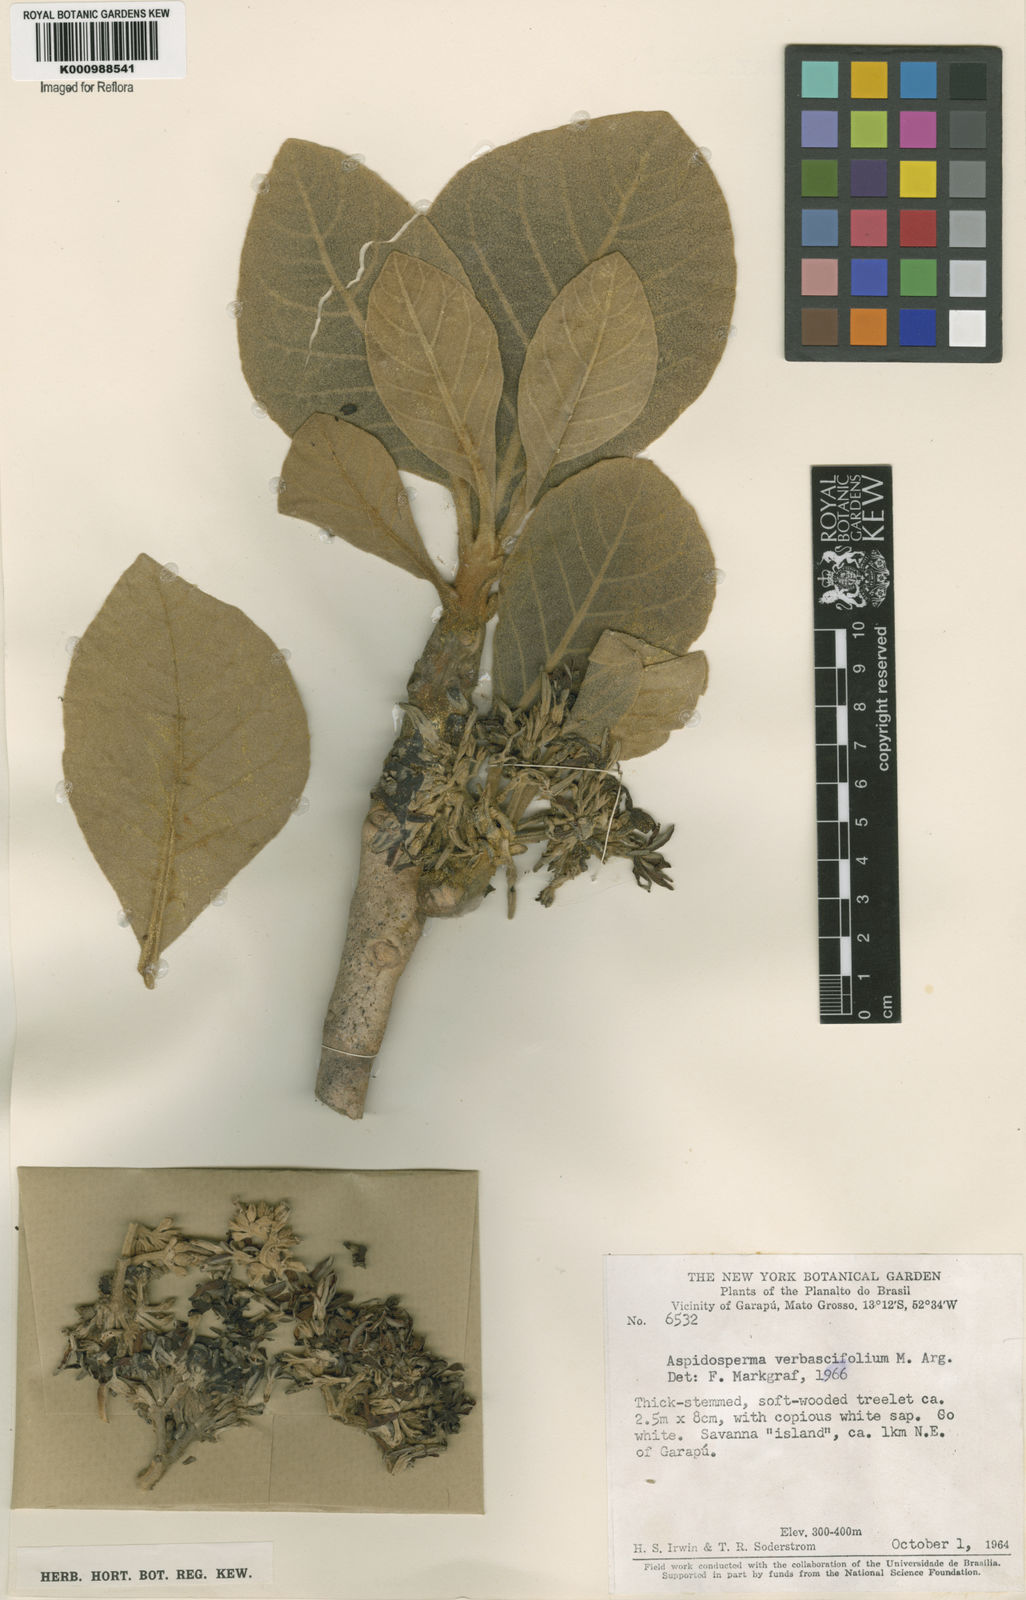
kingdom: Plantae
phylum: Tracheophyta
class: Magnoliopsida
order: Gentianales
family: Apocynaceae
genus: Aspidosperma
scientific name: Aspidosperma
